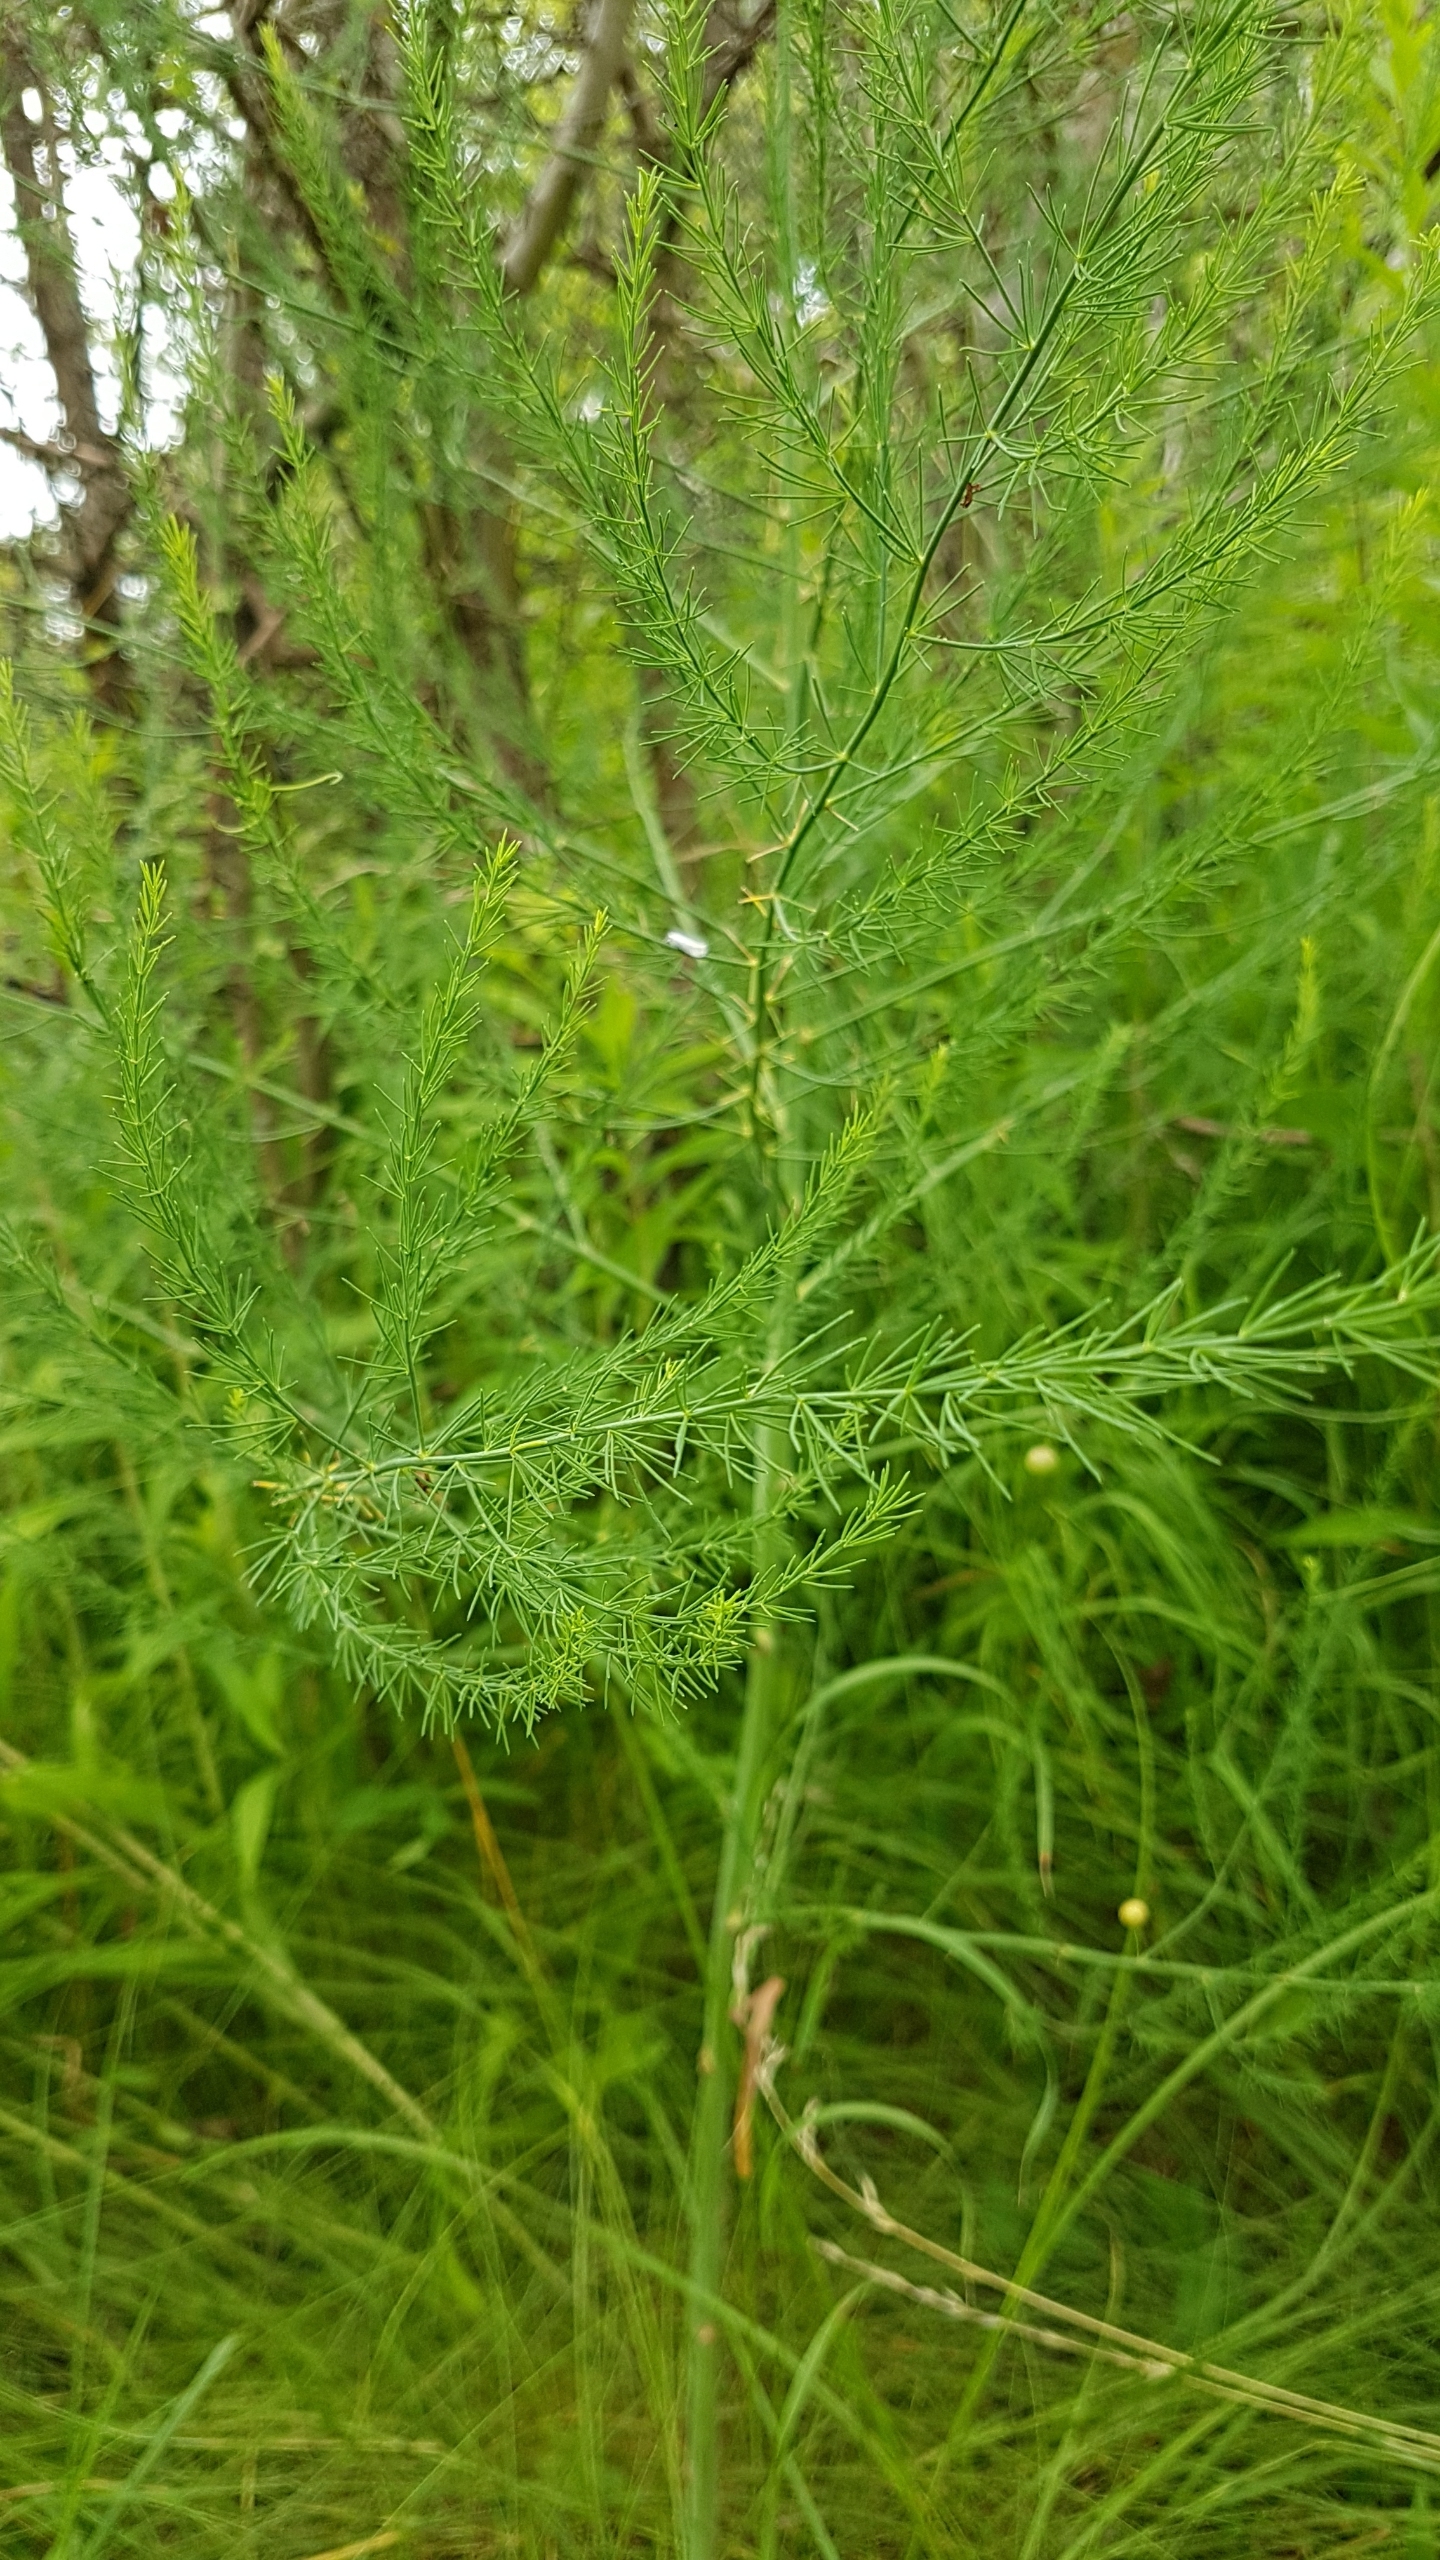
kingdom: Plantae
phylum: Tracheophyta
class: Liliopsida
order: Asparagales
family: Asparagaceae
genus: Asparagus
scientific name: Asparagus officinalis
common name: Asparges
